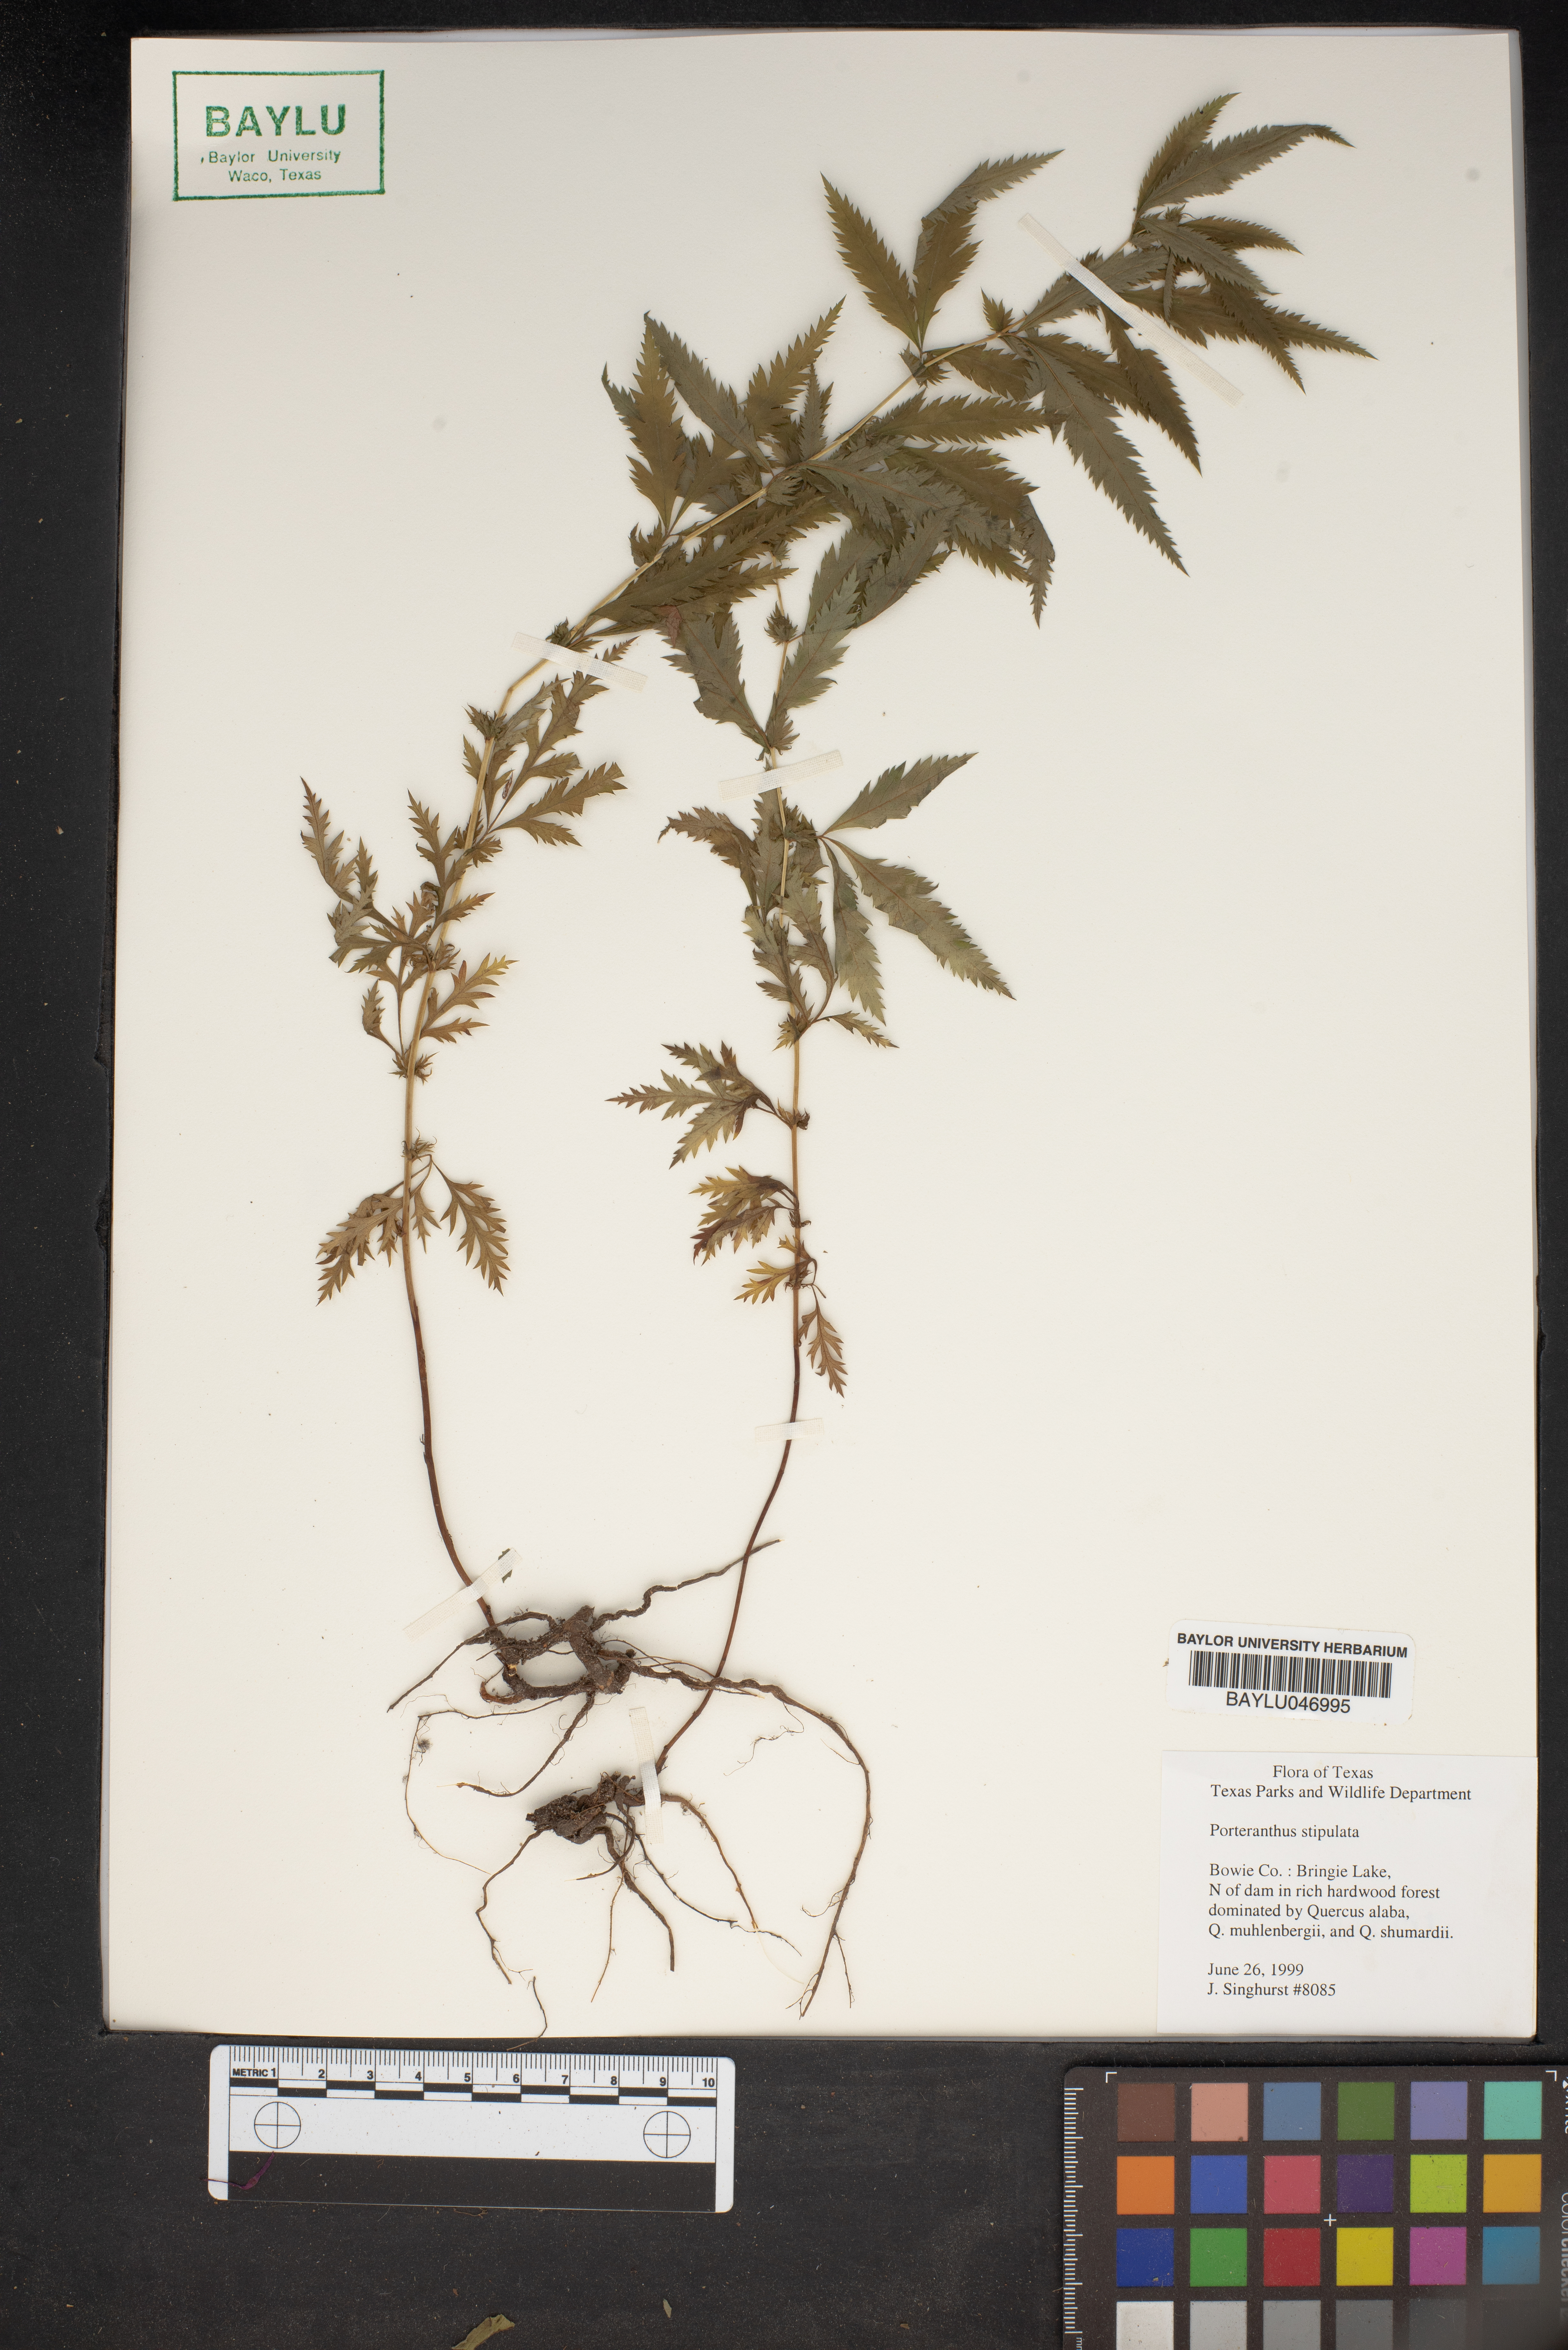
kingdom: Plantae
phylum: Tracheophyta
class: Magnoliopsida
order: Rosales
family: Rosaceae
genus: Gillenia
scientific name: Gillenia stipulata
